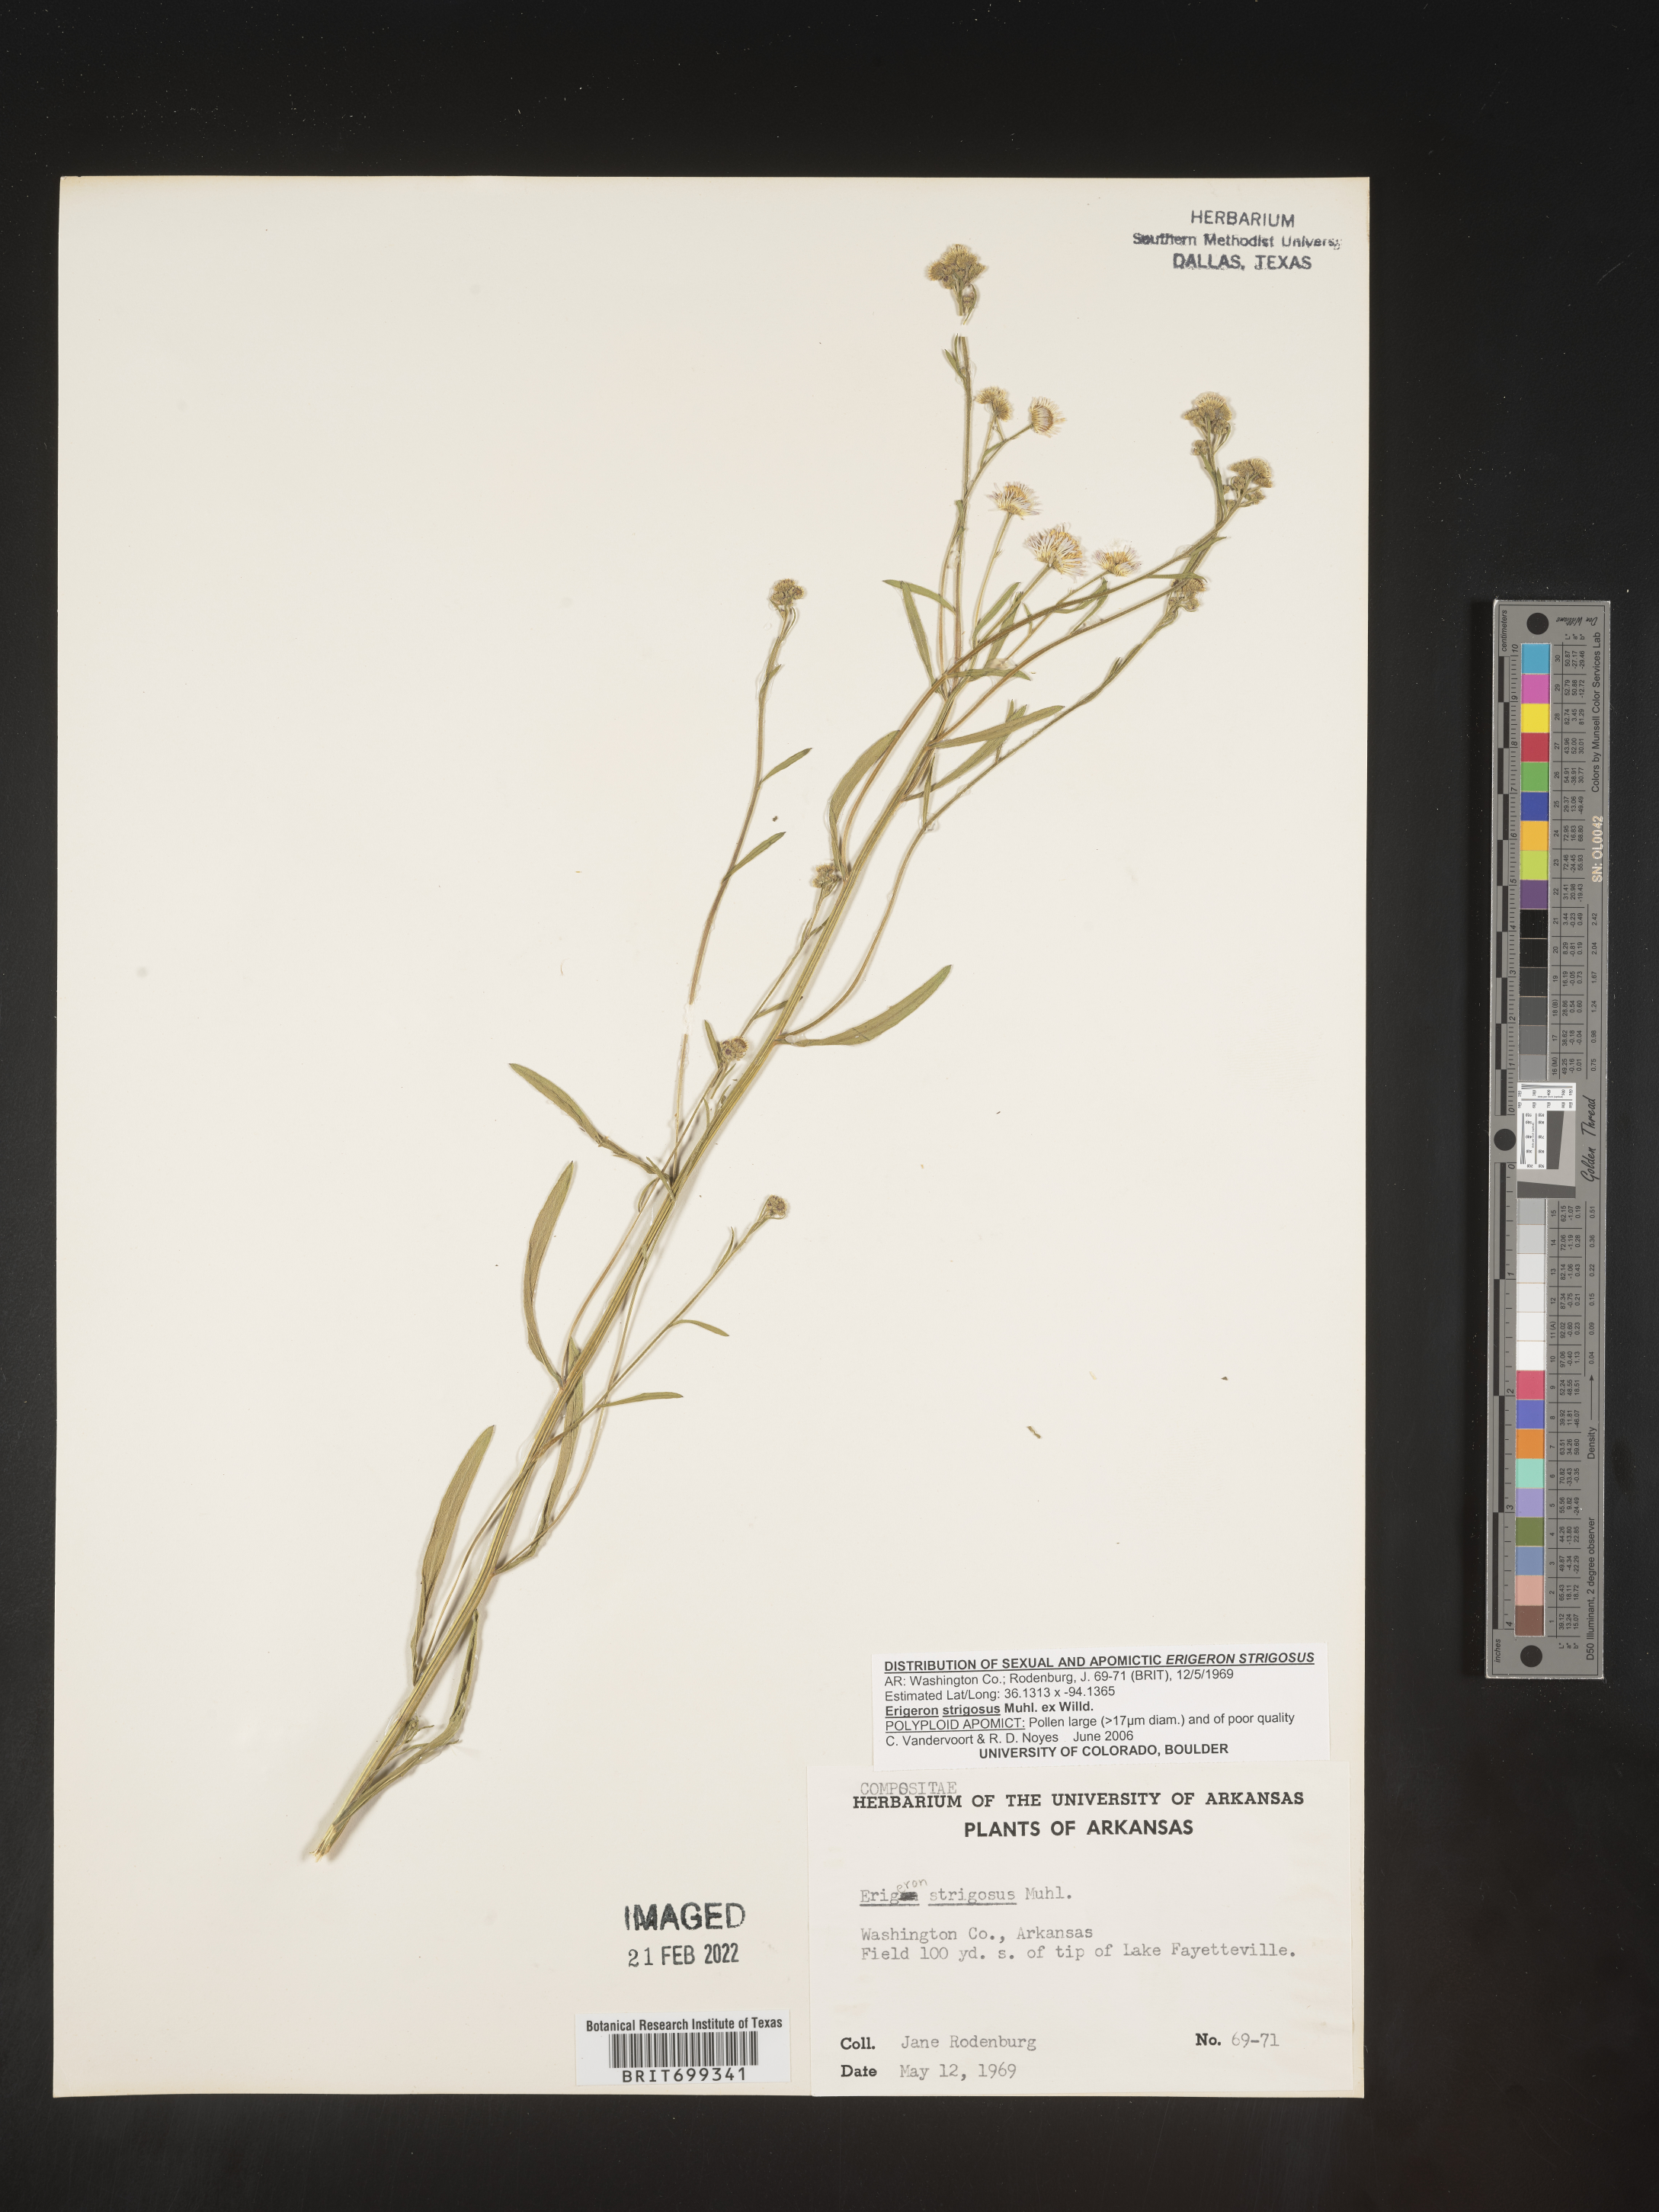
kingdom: Plantae
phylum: Tracheophyta
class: Magnoliopsida
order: Asterales
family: Asteraceae
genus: Erigeron
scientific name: Erigeron strigosus
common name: Common eastern fleabane
